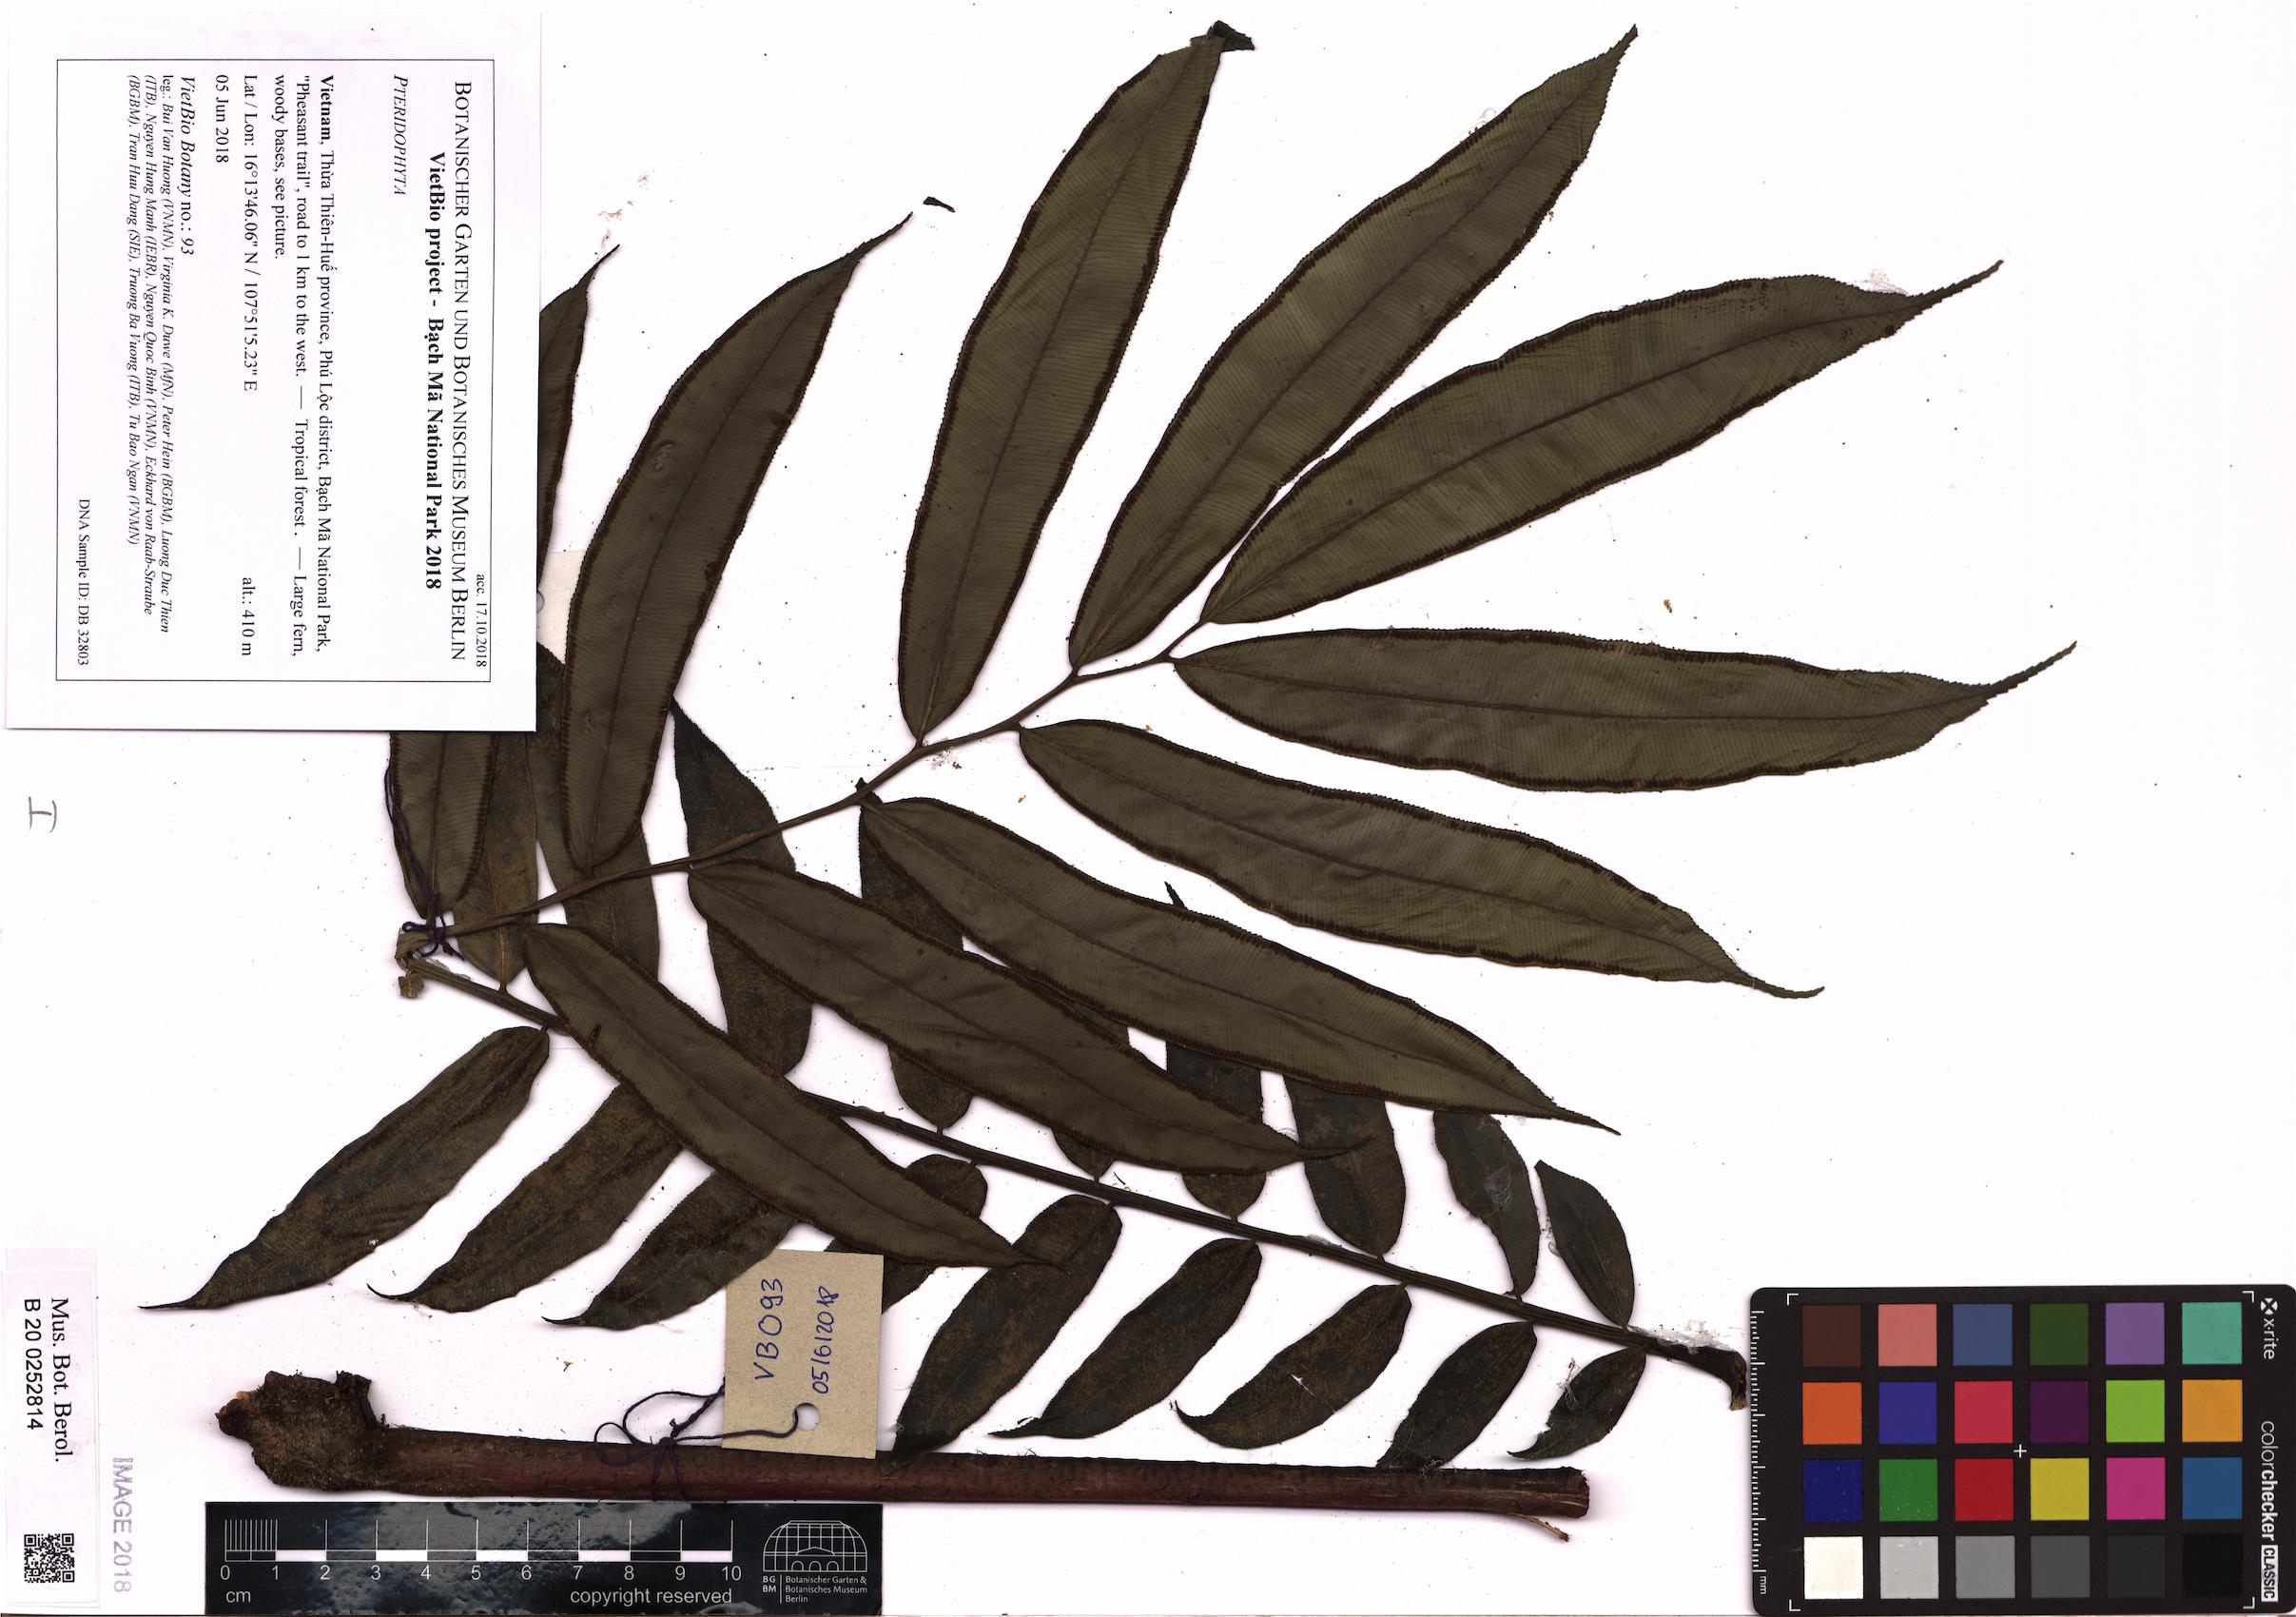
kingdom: Plantae
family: Pteridophyta
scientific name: Pteridophyta
